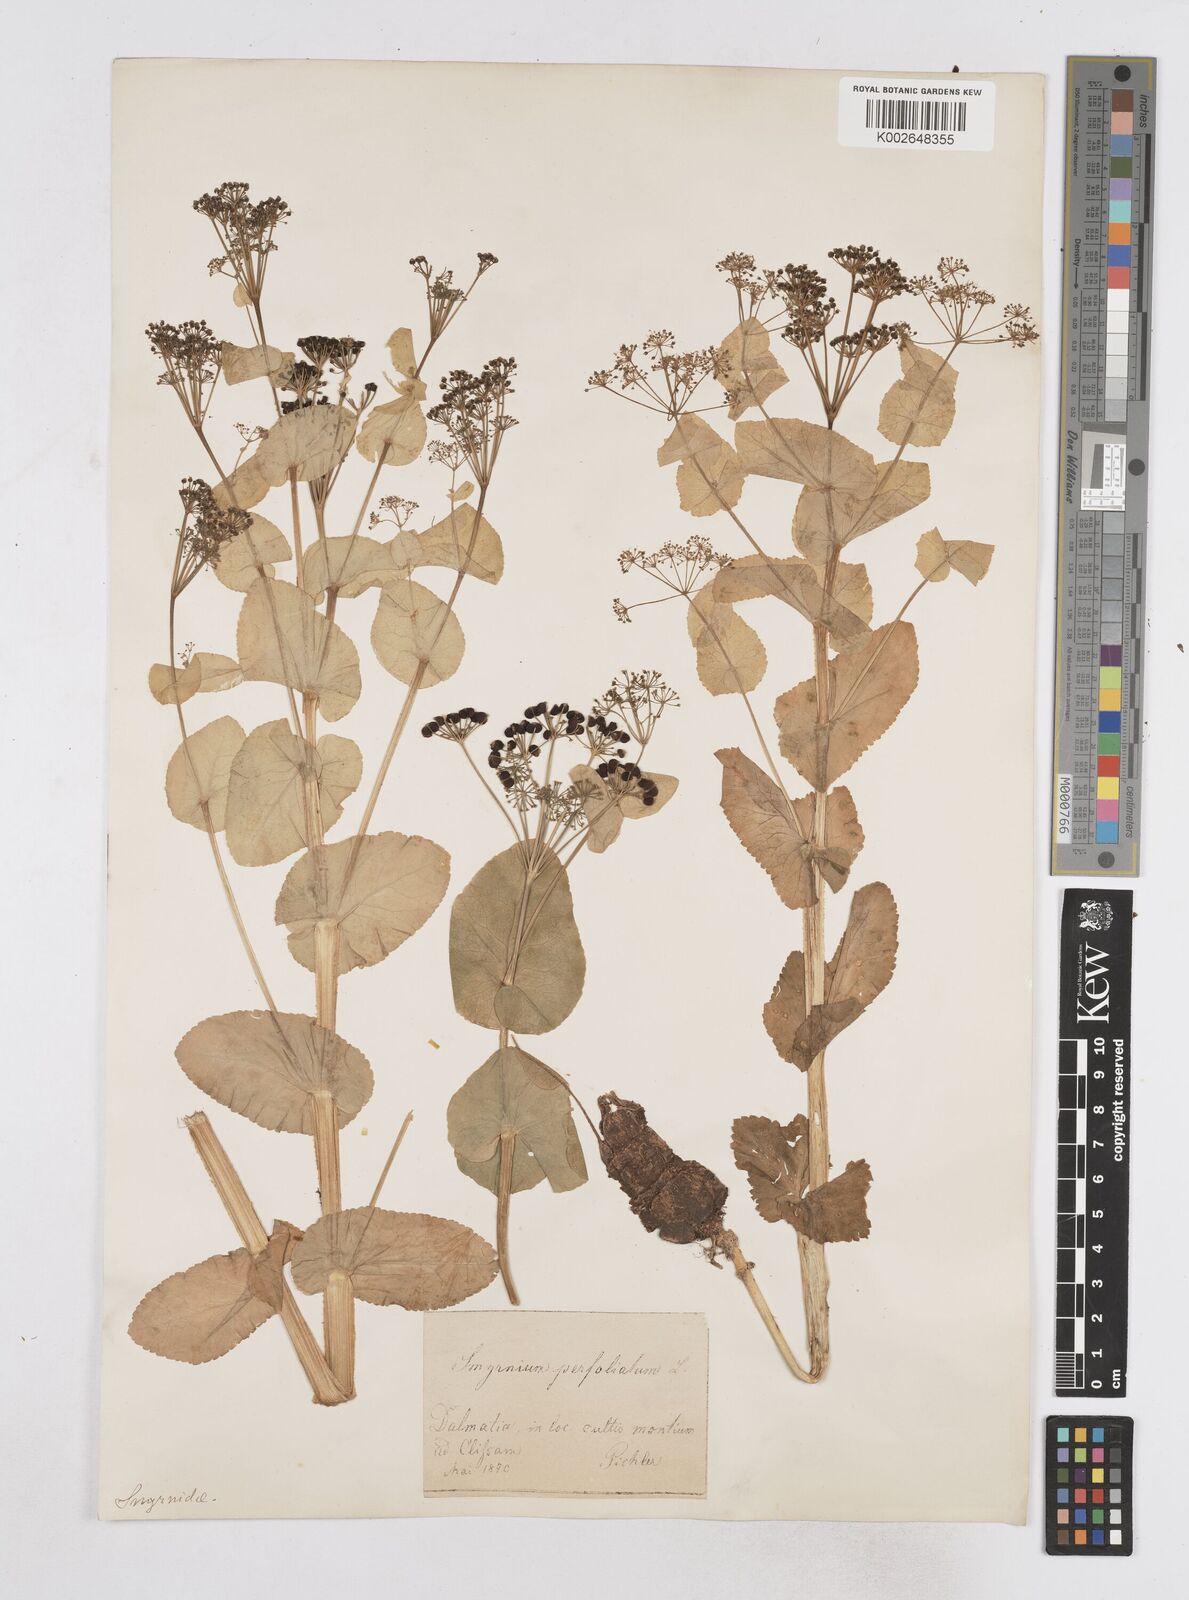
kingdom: Plantae
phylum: Tracheophyta
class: Magnoliopsida
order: Apiales
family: Apiaceae
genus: Smyrnium
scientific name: Smyrnium perfoliatum
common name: Perfoliate alexanders
